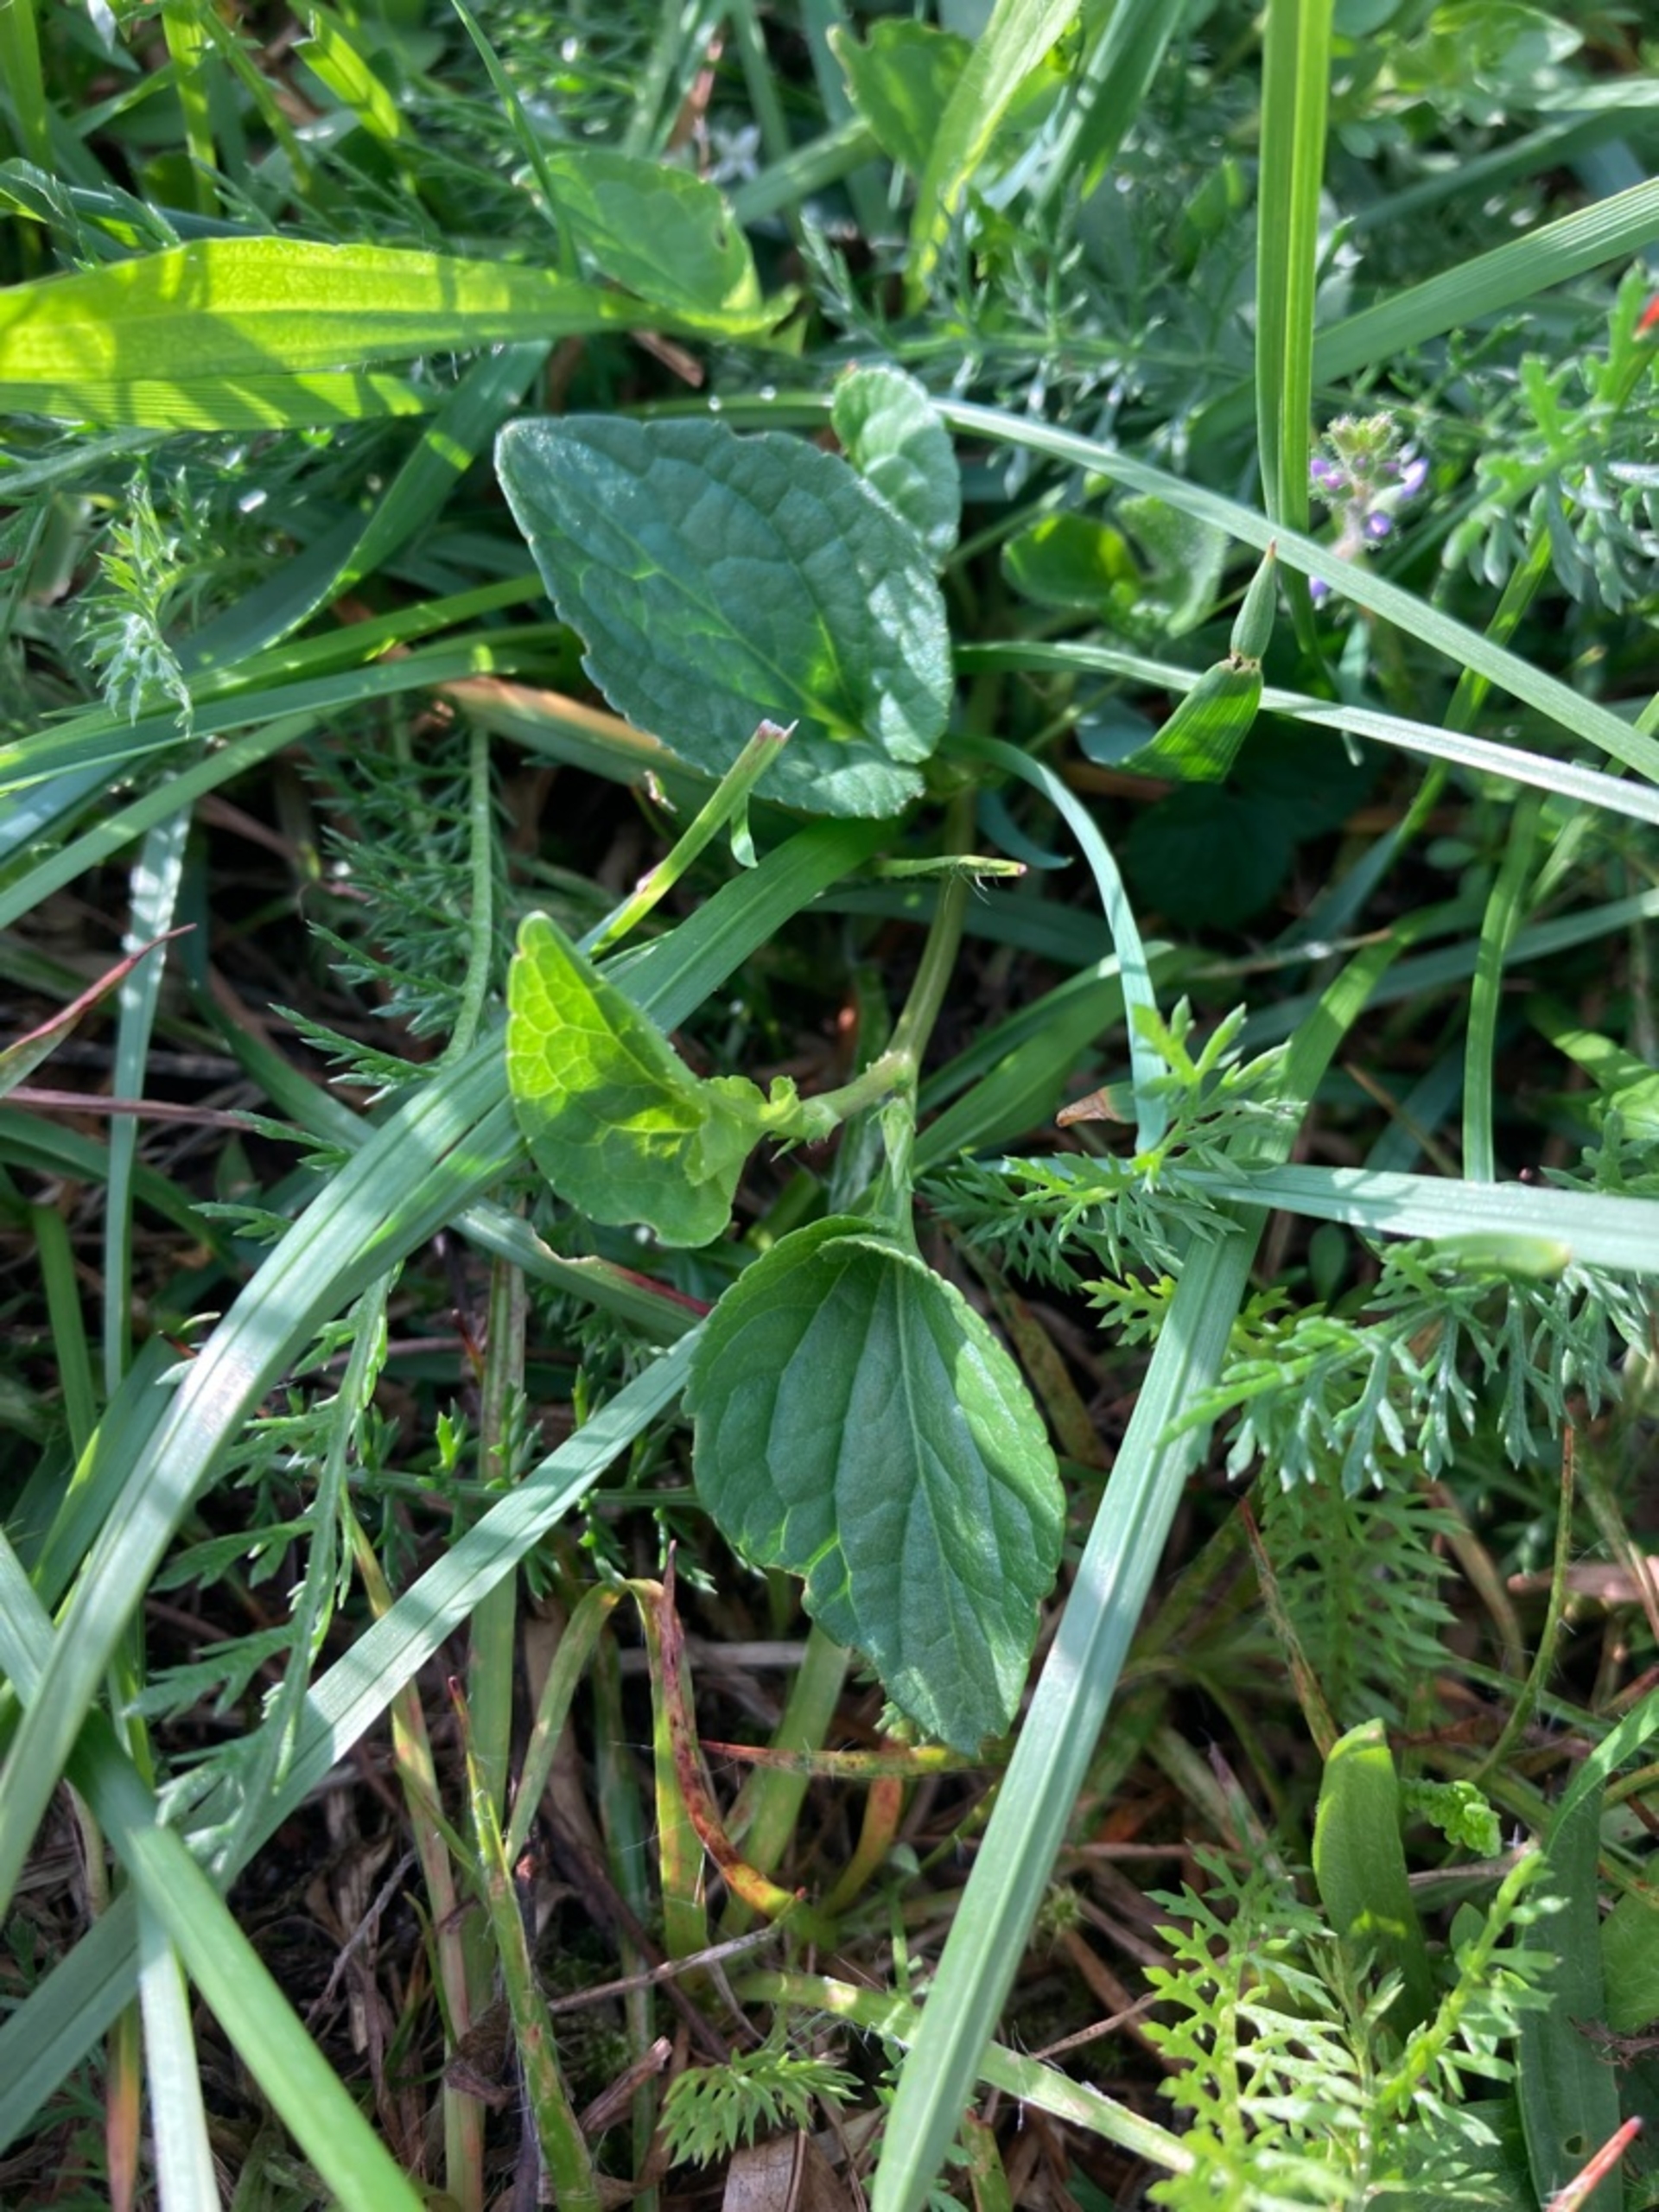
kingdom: Plantae
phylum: Tracheophyta
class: Magnoliopsida
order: Malpighiales
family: Violaceae
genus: Viola
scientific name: Viola canina
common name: Hunde-viol
